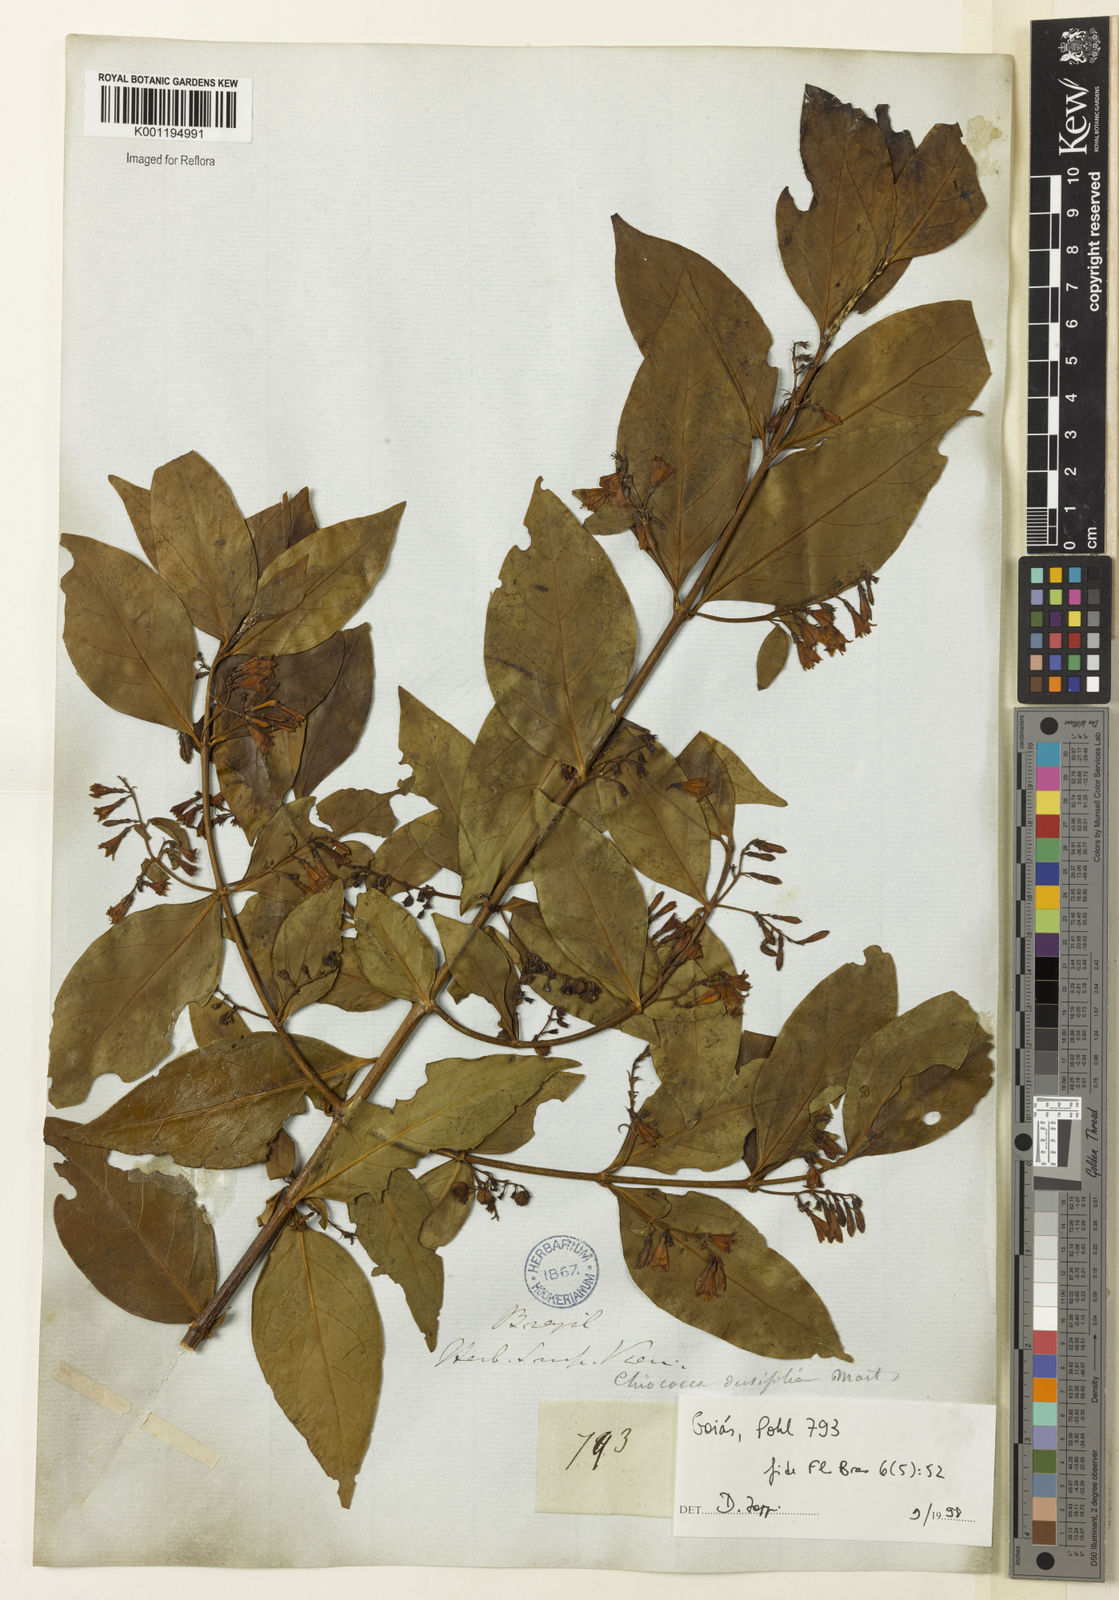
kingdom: Plantae
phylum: Tracheophyta
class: Magnoliopsida
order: Gentianales
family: Rubiaceae
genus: Chiococca
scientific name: Chiococca alba
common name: Snowberry
